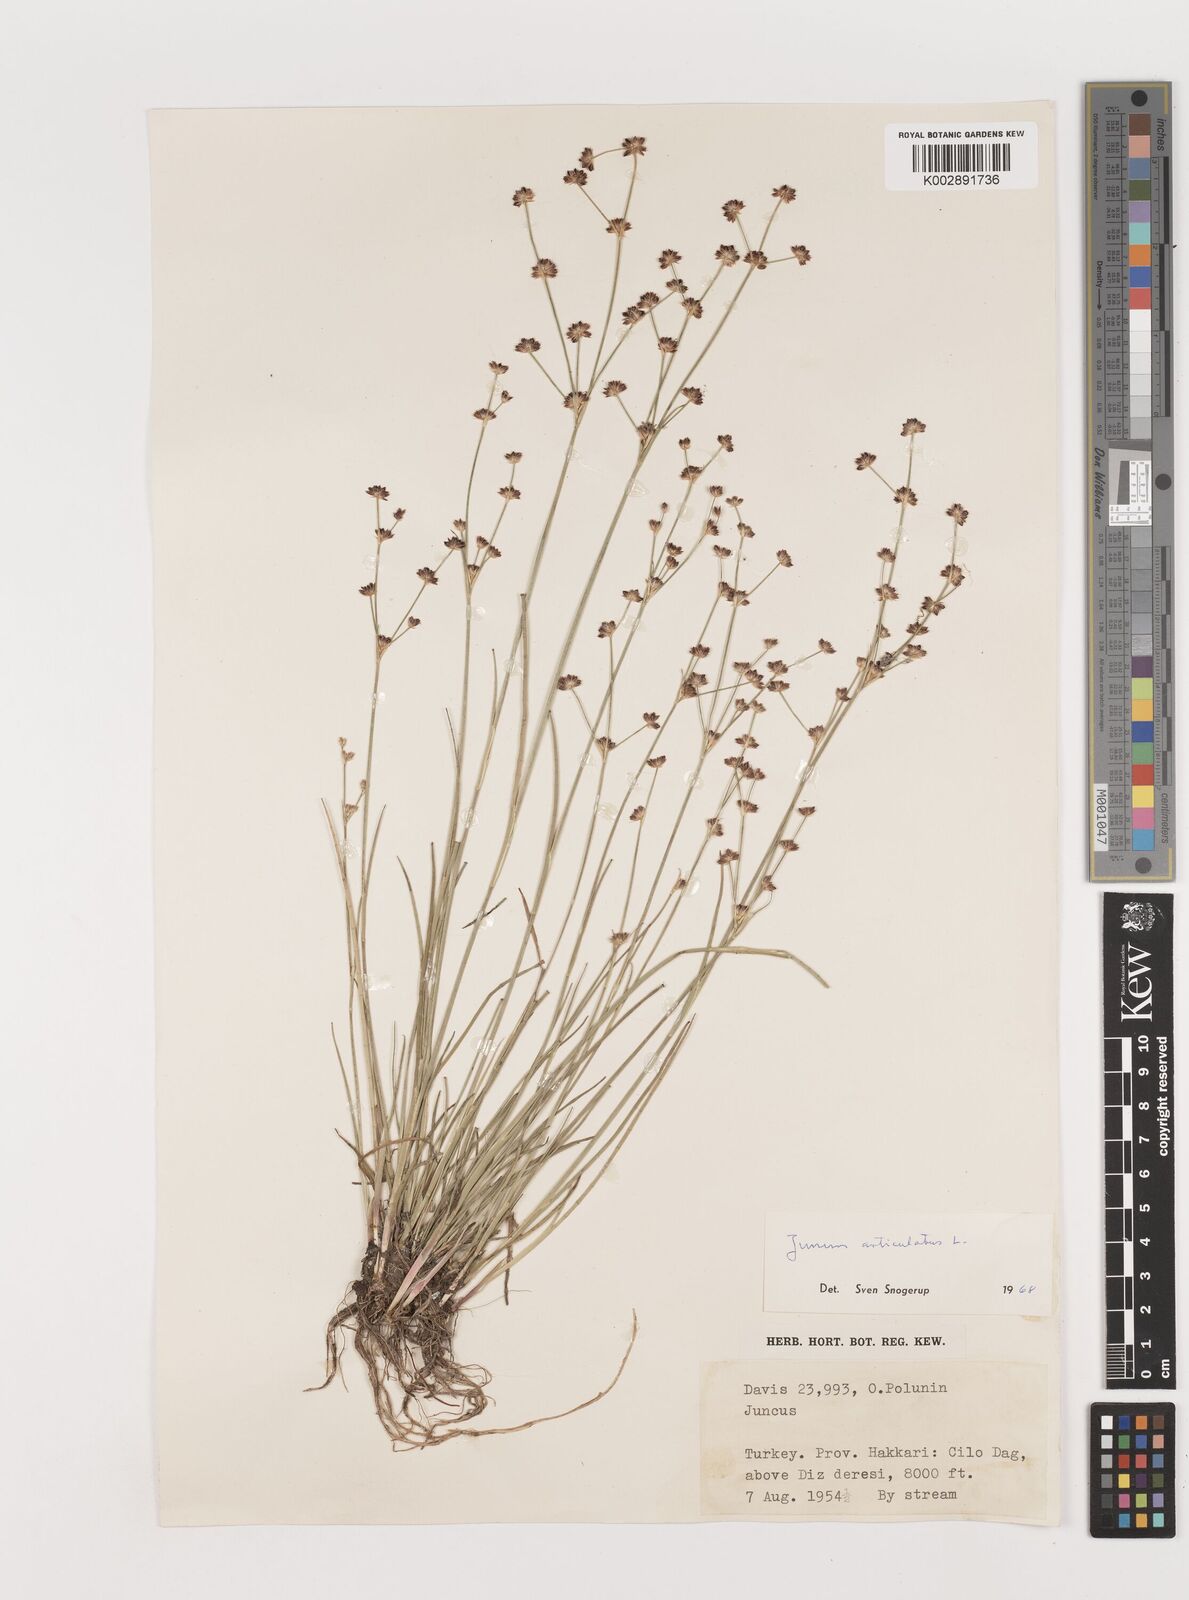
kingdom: Plantae
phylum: Tracheophyta
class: Liliopsida
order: Poales
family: Juncaceae
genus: Juncus
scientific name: Juncus articulatus
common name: Jointed rush
